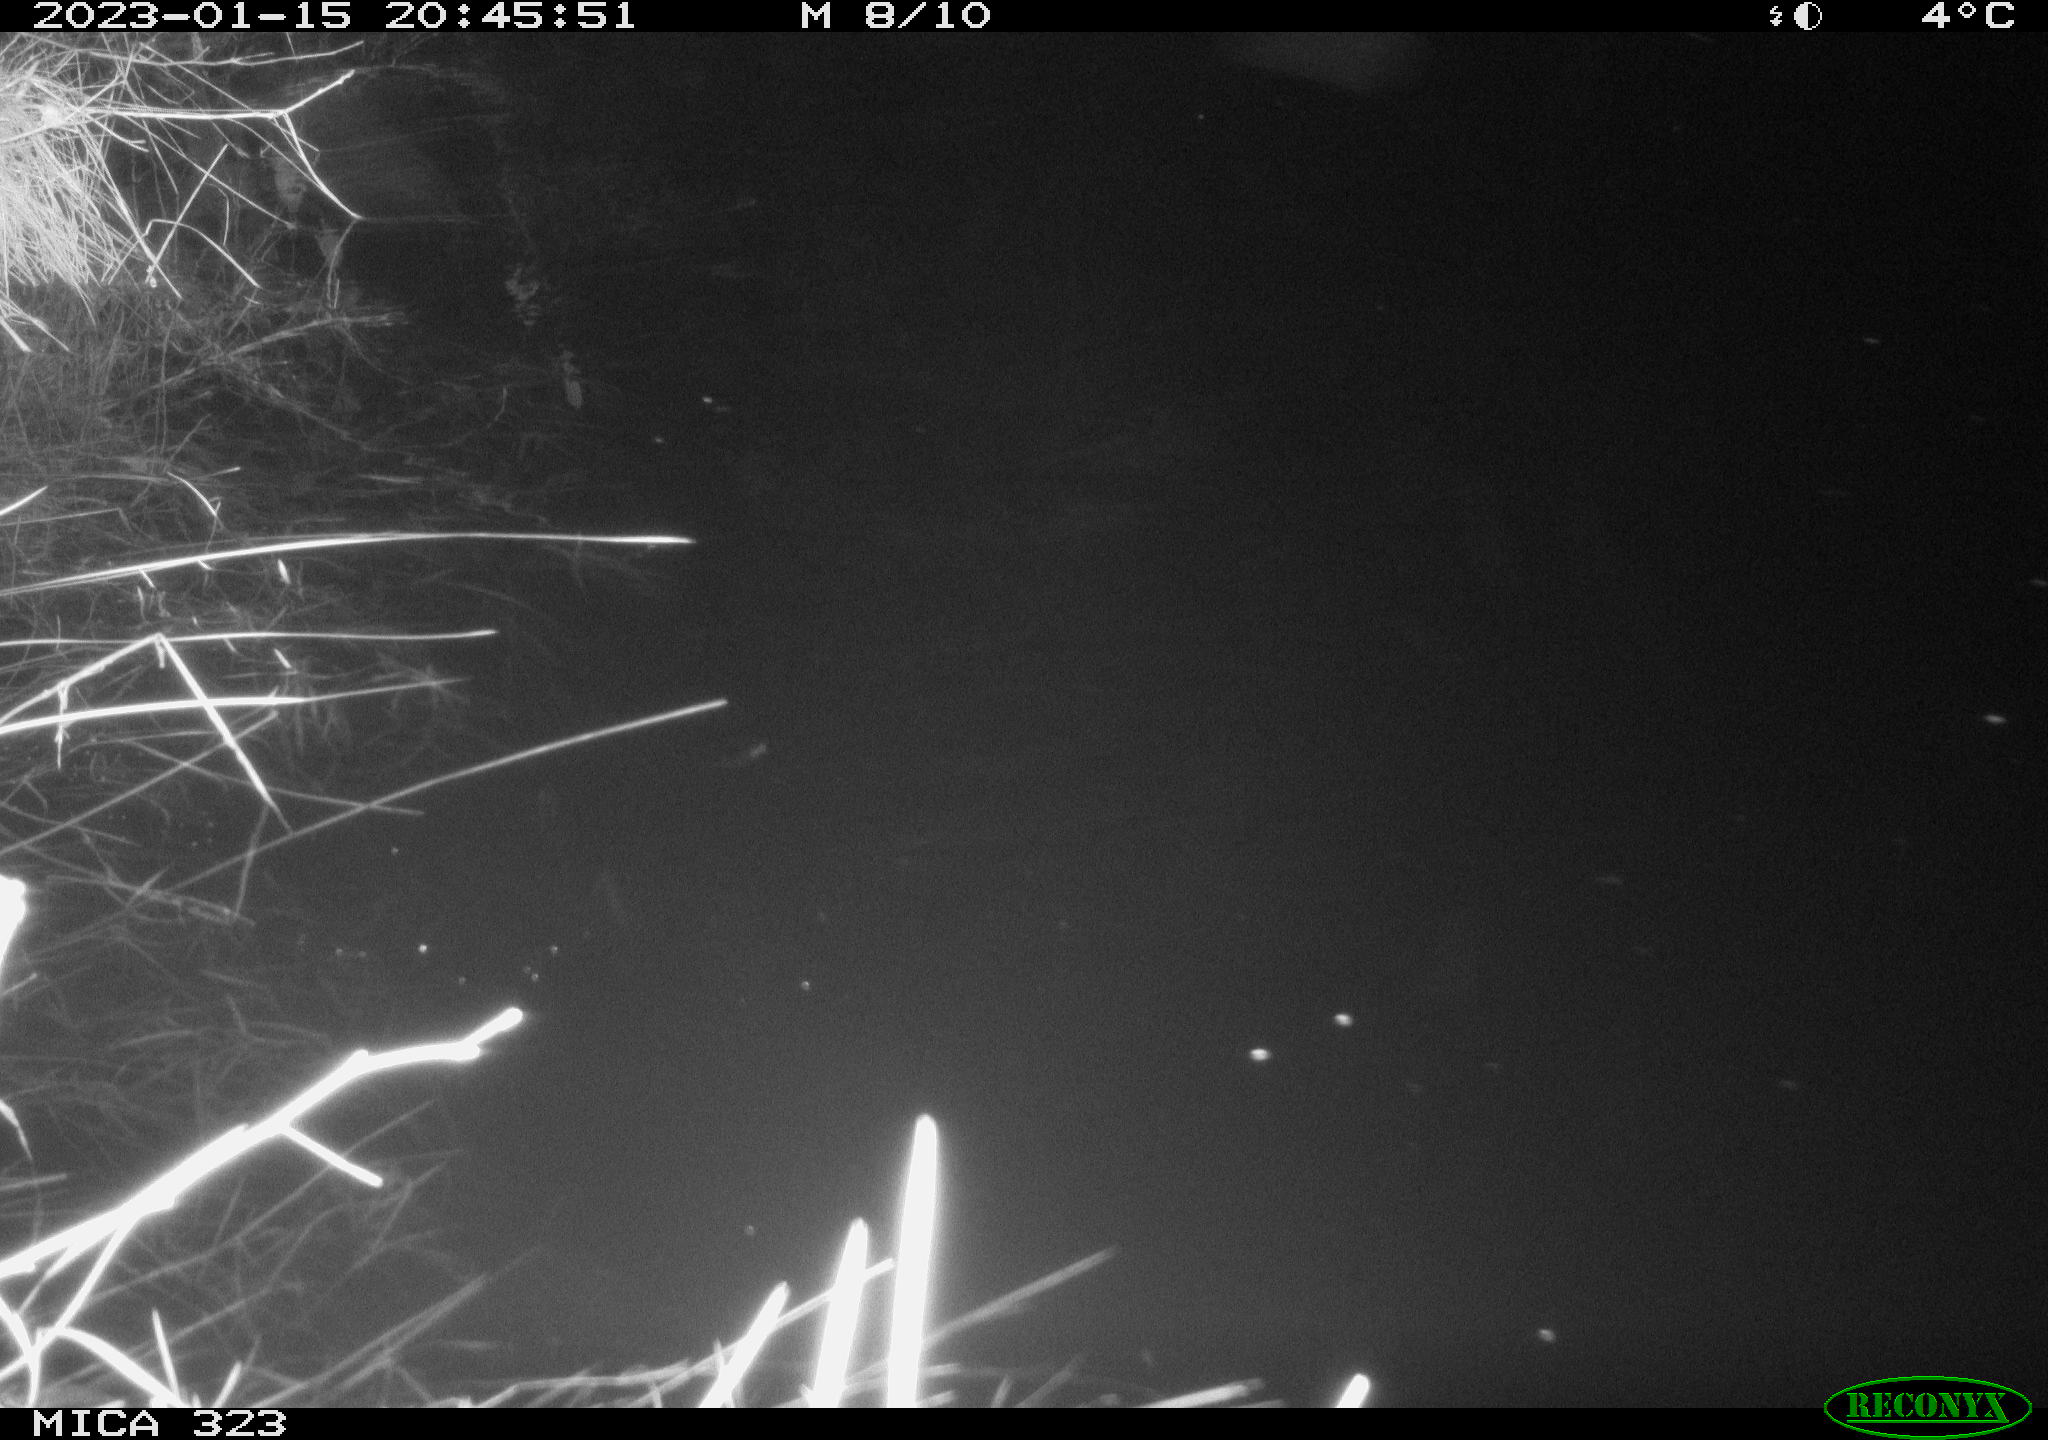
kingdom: Animalia
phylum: Chordata
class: Mammalia
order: Rodentia
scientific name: Rodentia
